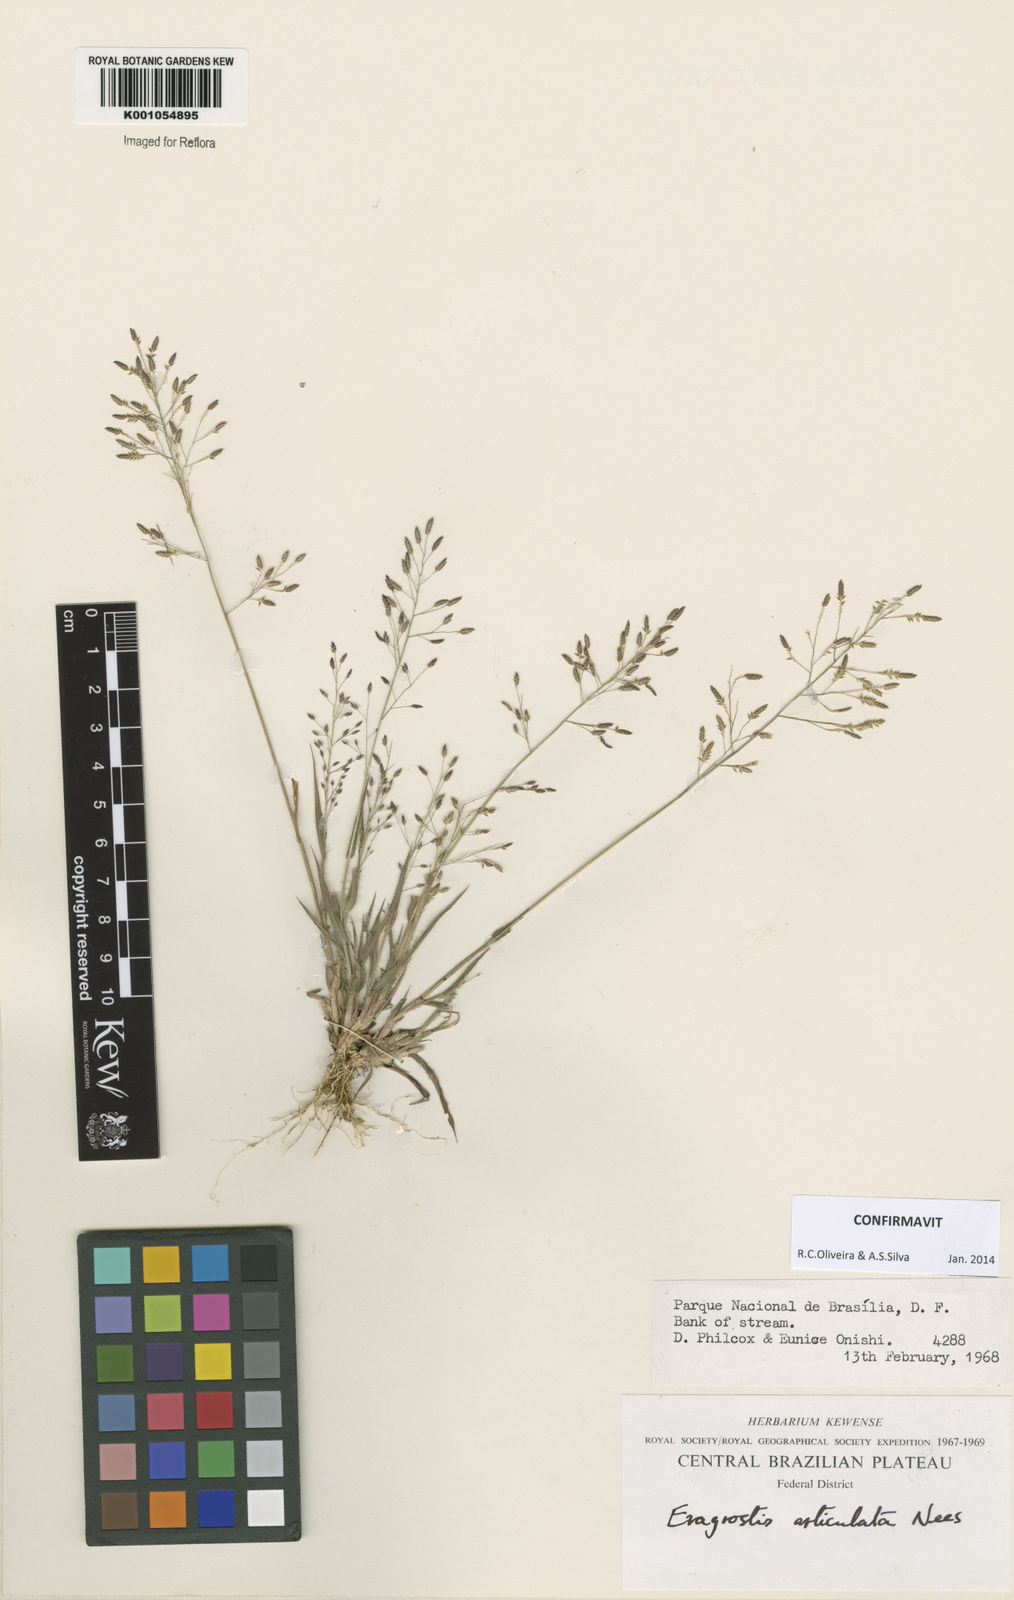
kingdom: Plantae
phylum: Tracheophyta
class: Liliopsida
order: Poales
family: Poaceae
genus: Eragrostis
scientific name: Eragrostis articulata
